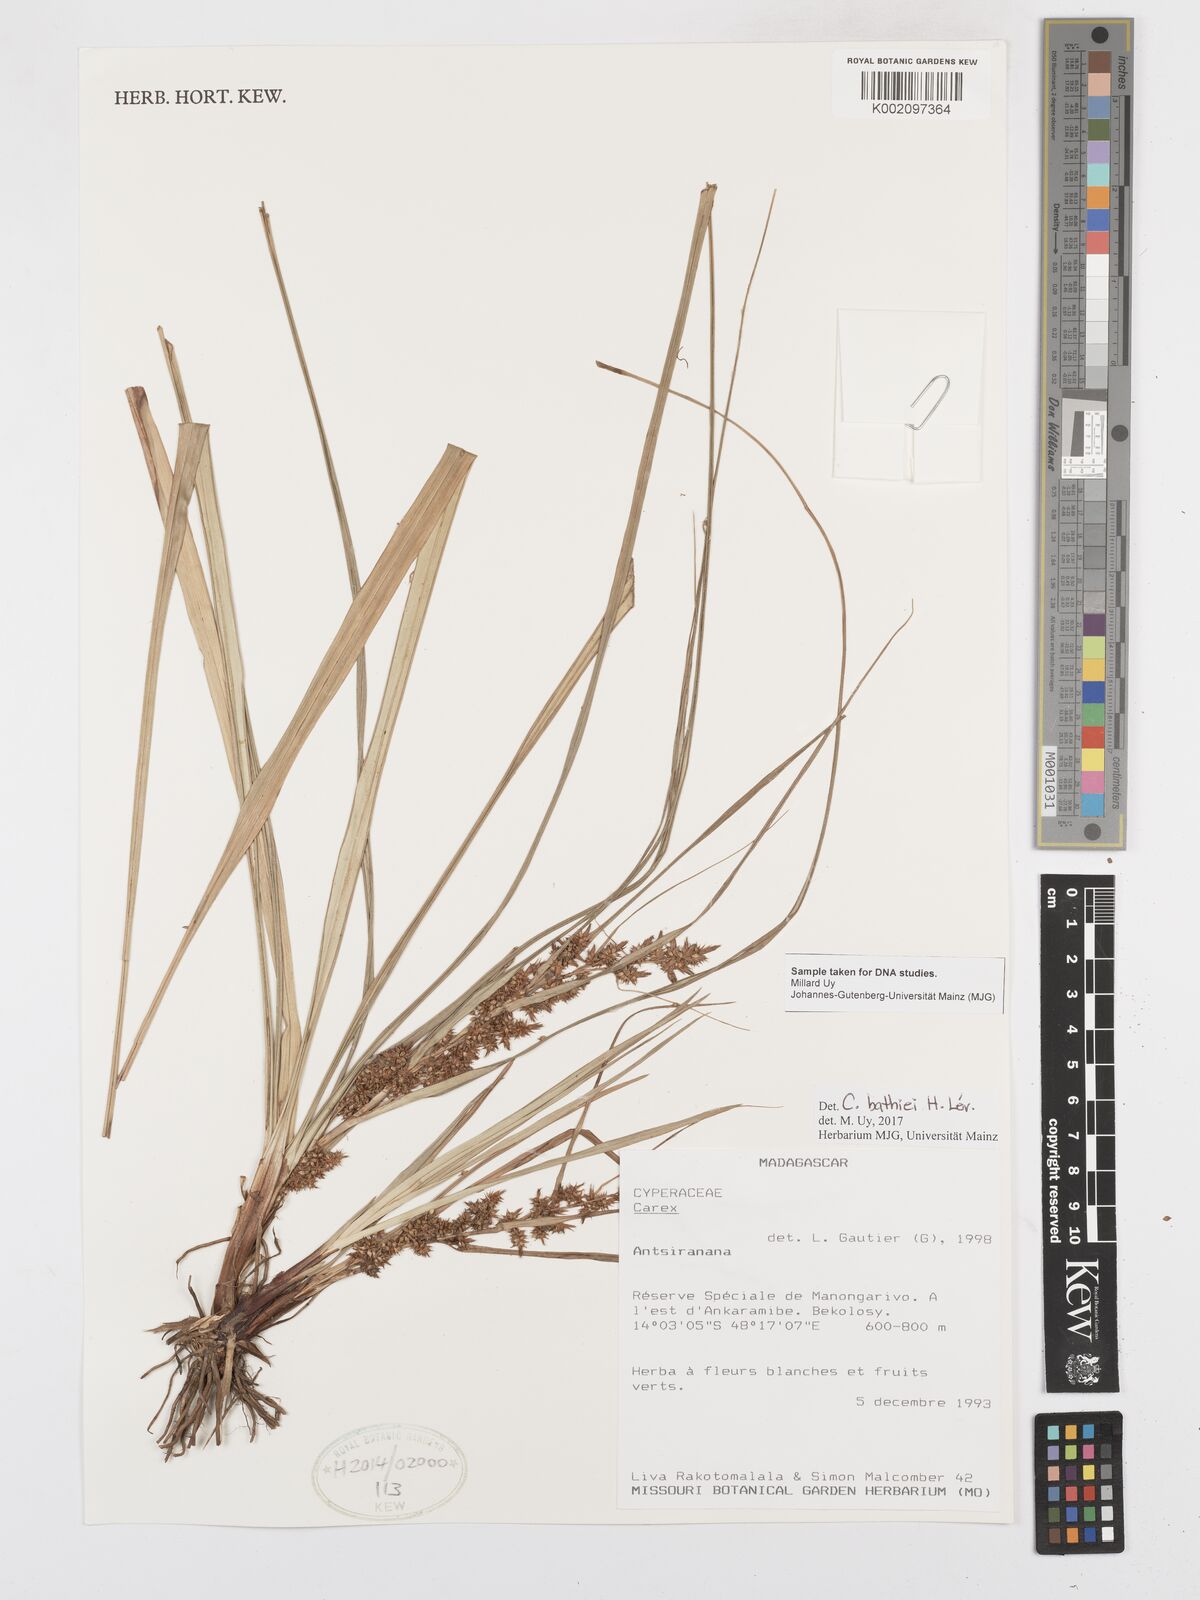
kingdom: Plantae
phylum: Tracheophyta
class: Liliopsida
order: Poales
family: Cyperaceae
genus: Carex
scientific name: Carex bathiei
